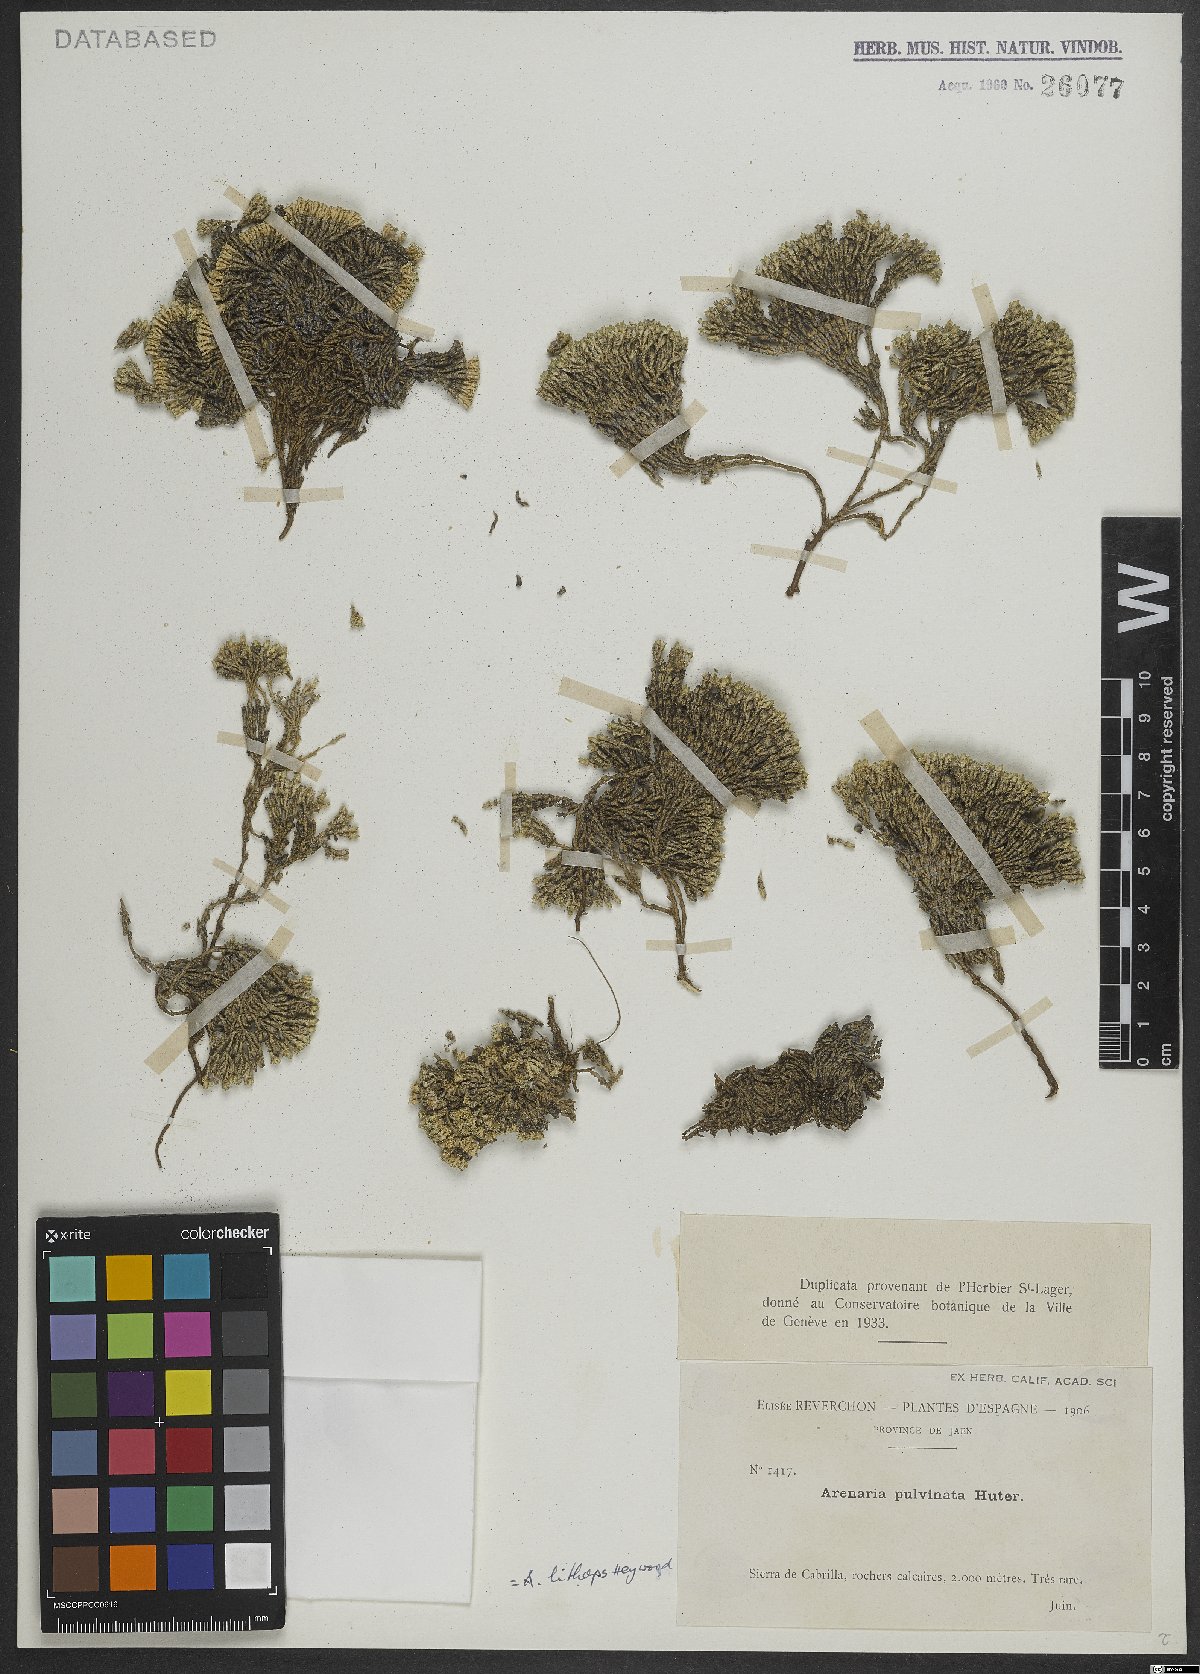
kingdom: Plantae
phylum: Tracheophyta
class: Magnoliopsida
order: Caryophyllales
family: Caryophyllaceae
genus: Arenaria
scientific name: Arenaria alfacarensis
